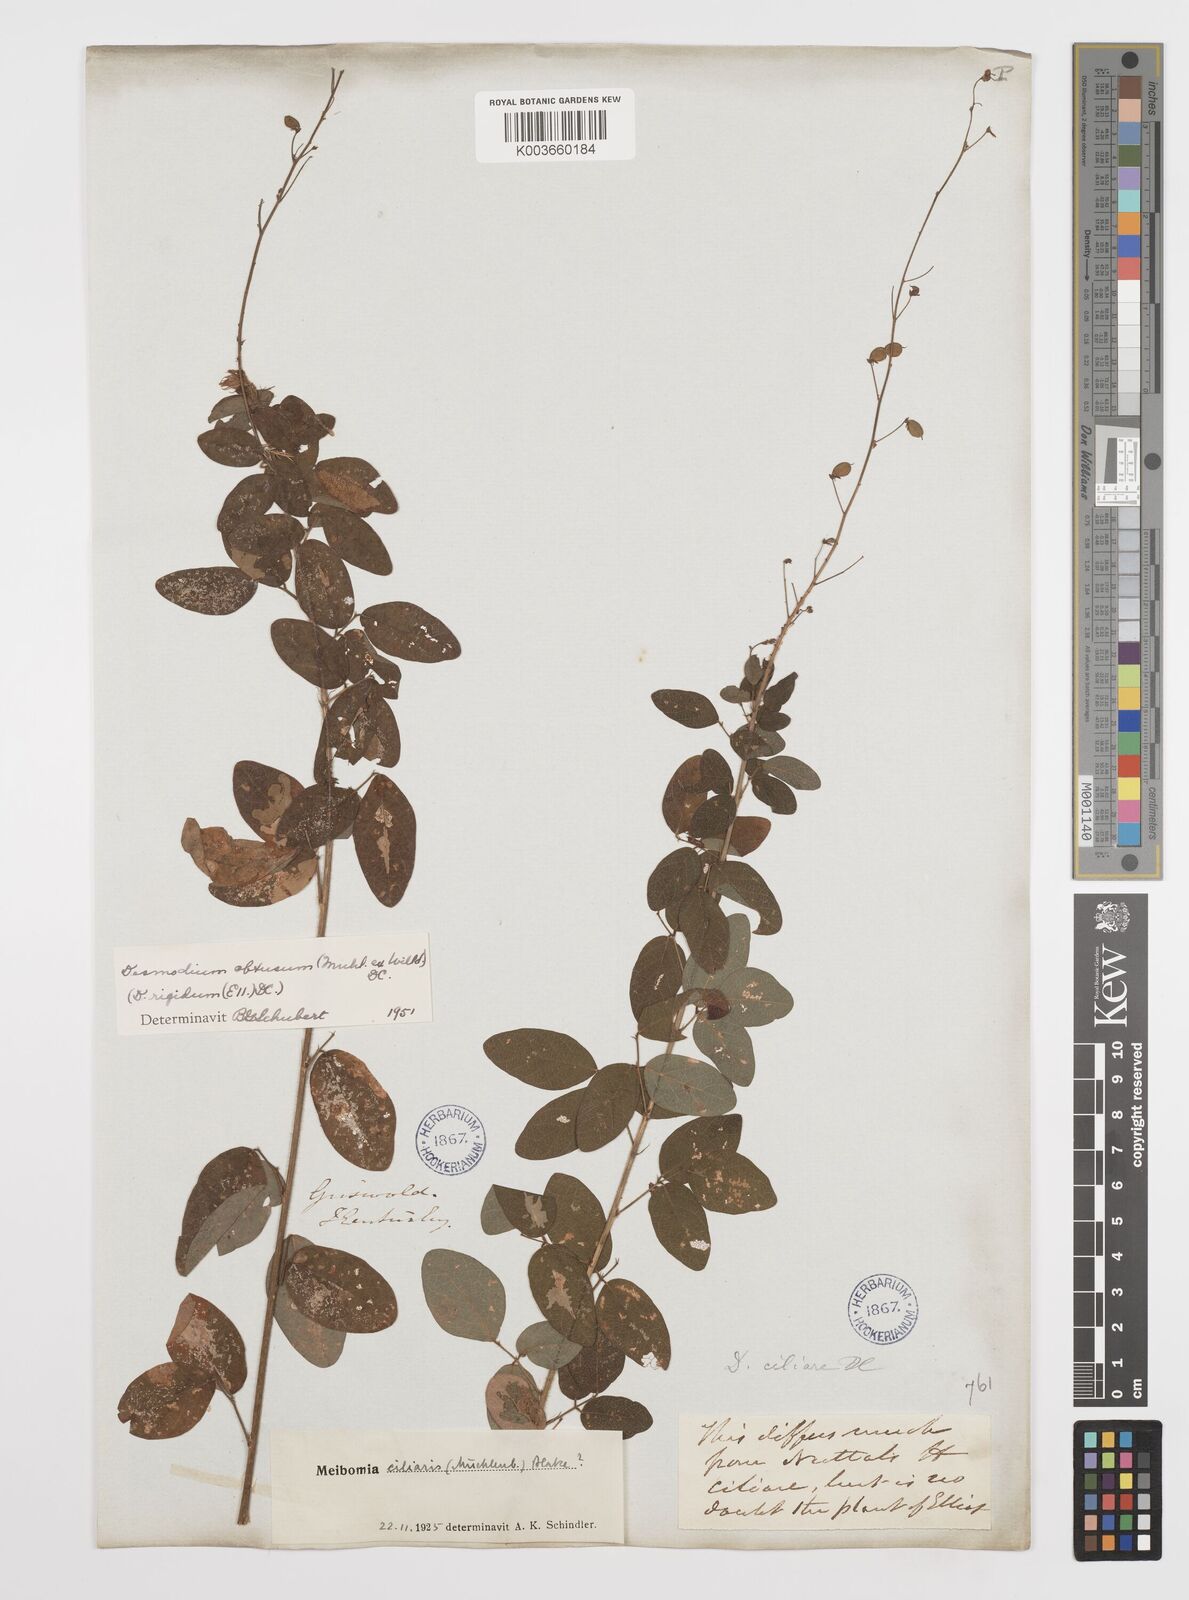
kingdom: Plantae
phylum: Tracheophyta
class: Magnoliopsida
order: Fabales
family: Fabaceae
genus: Desmodium
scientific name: Desmodium obtusum
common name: Stiff tick trefoil
